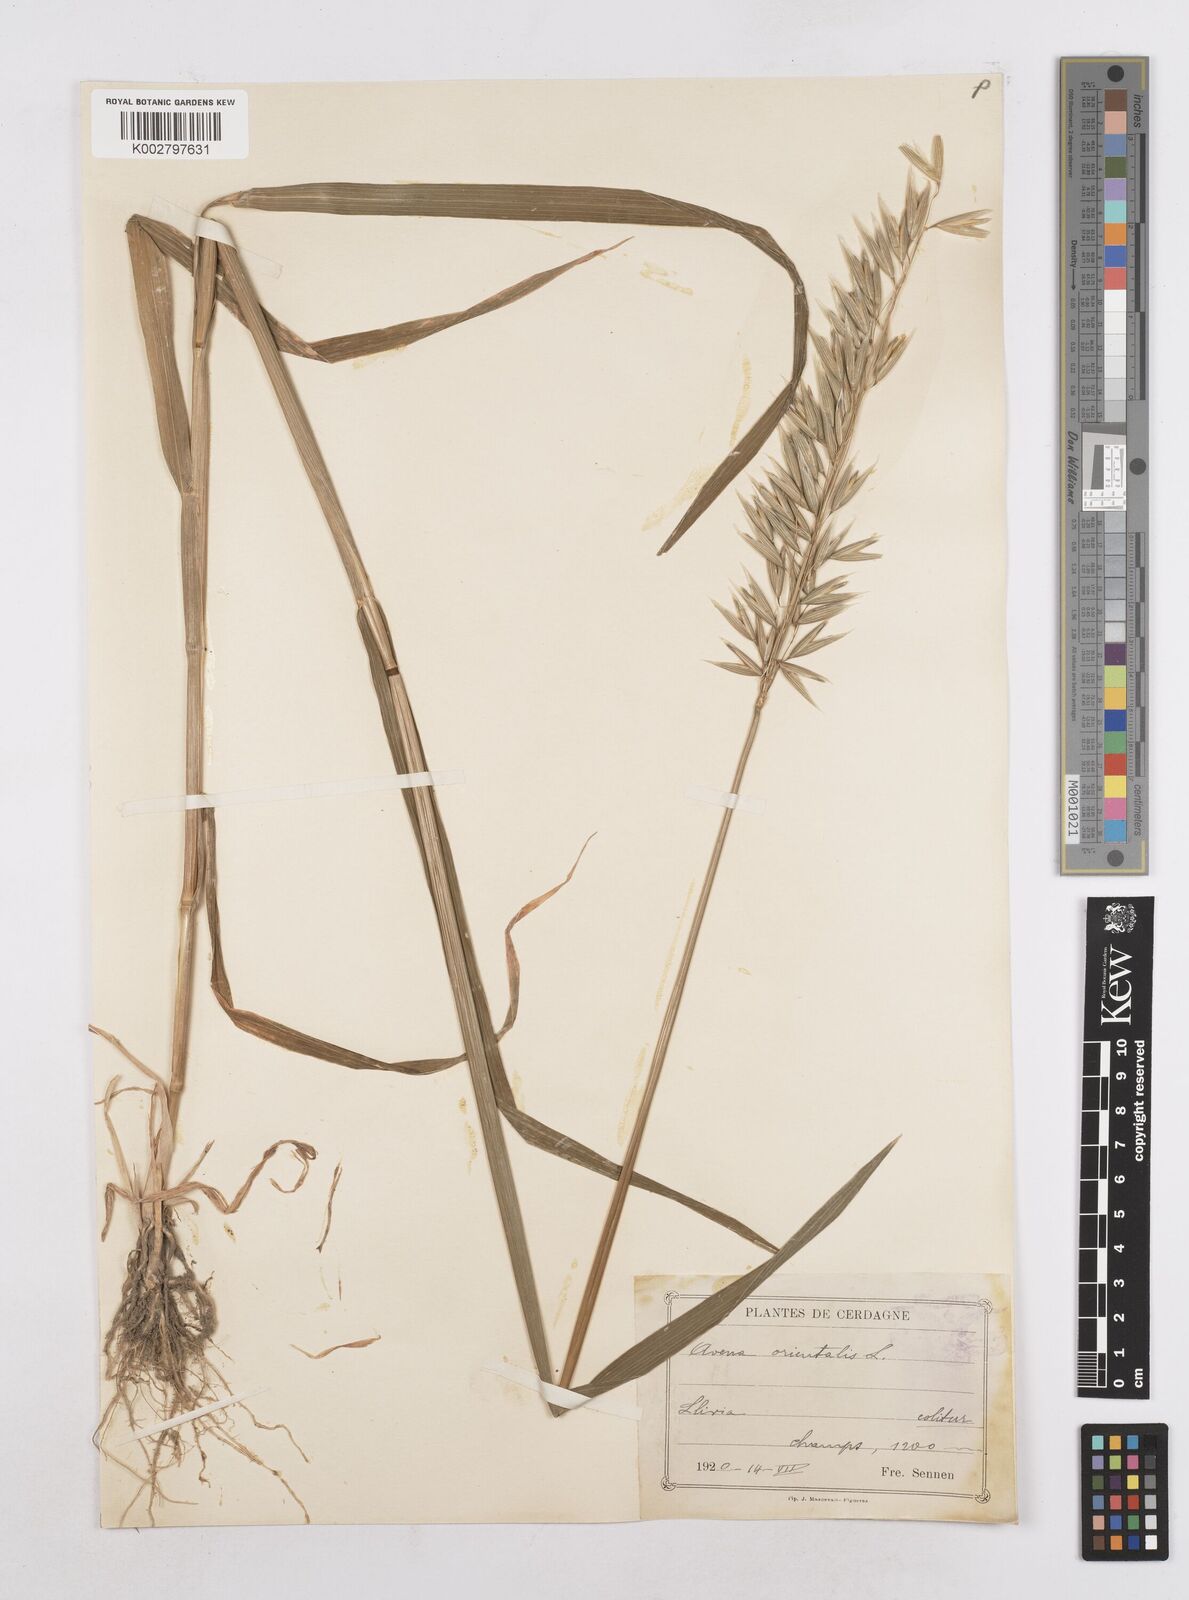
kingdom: Plantae
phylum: Tracheophyta
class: Liliopsida
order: Poales
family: Poaceae
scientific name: Poaceae
